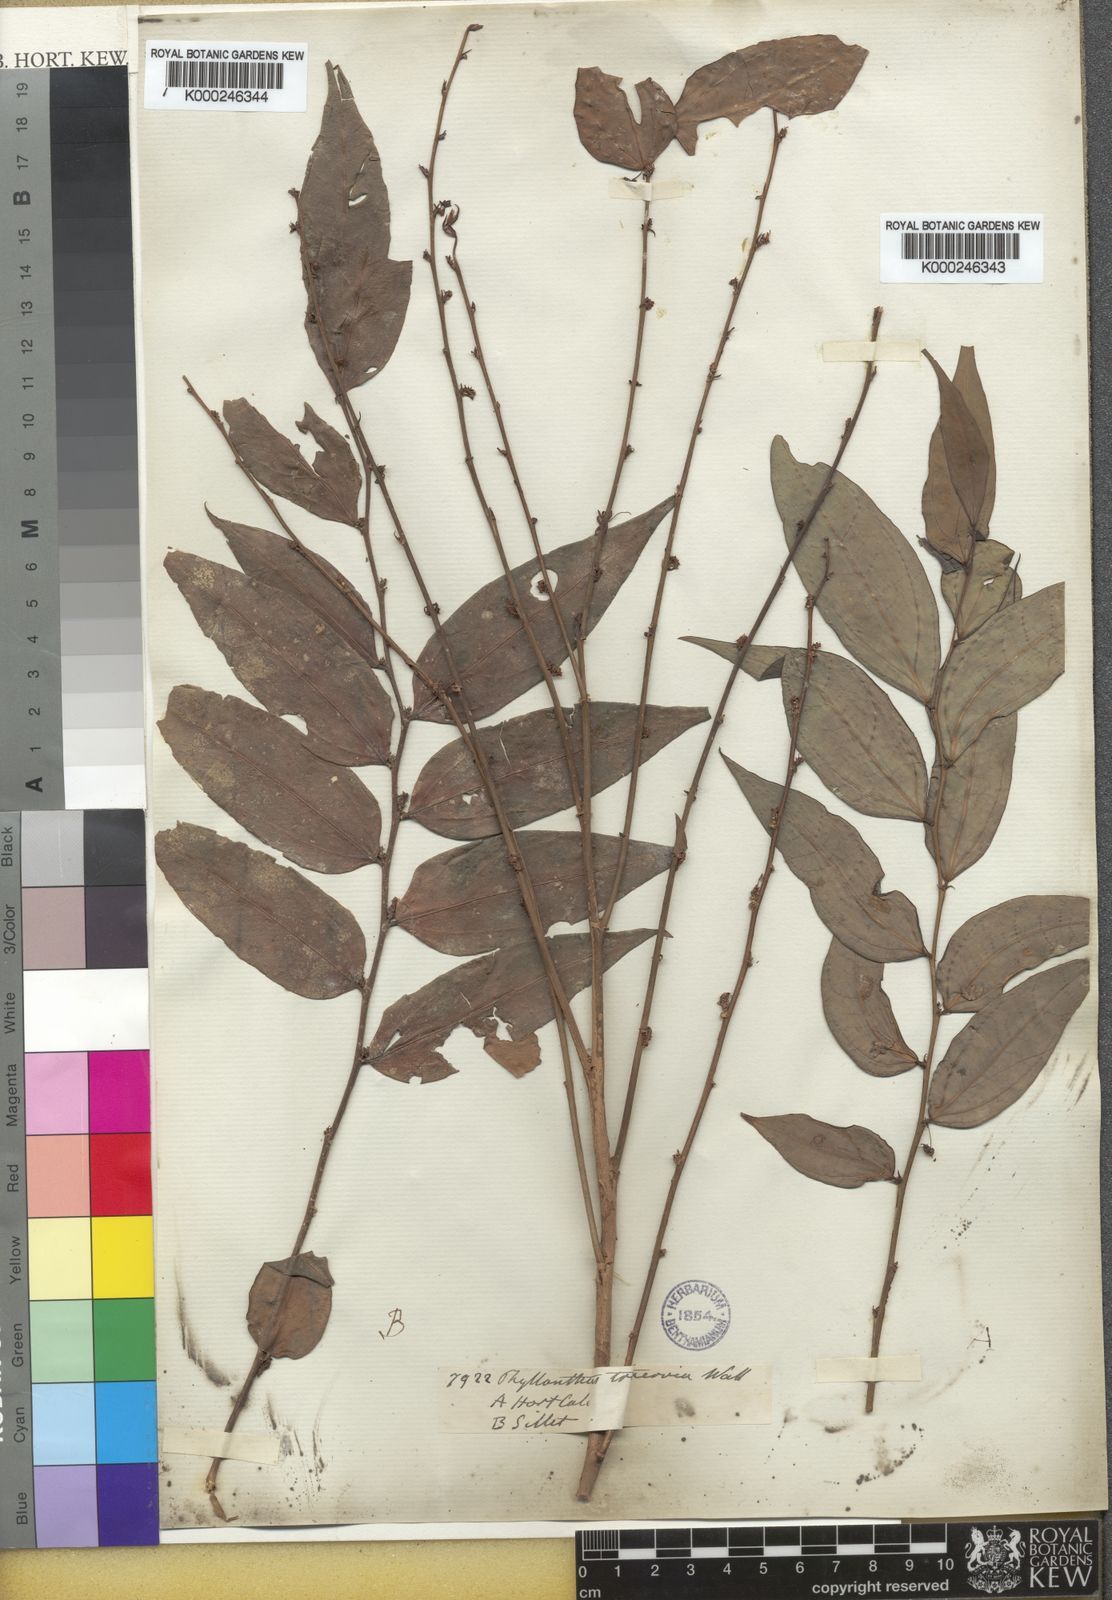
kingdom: Animalia
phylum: Chordata
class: Amphibia
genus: Sauropus
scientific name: Sauropus
